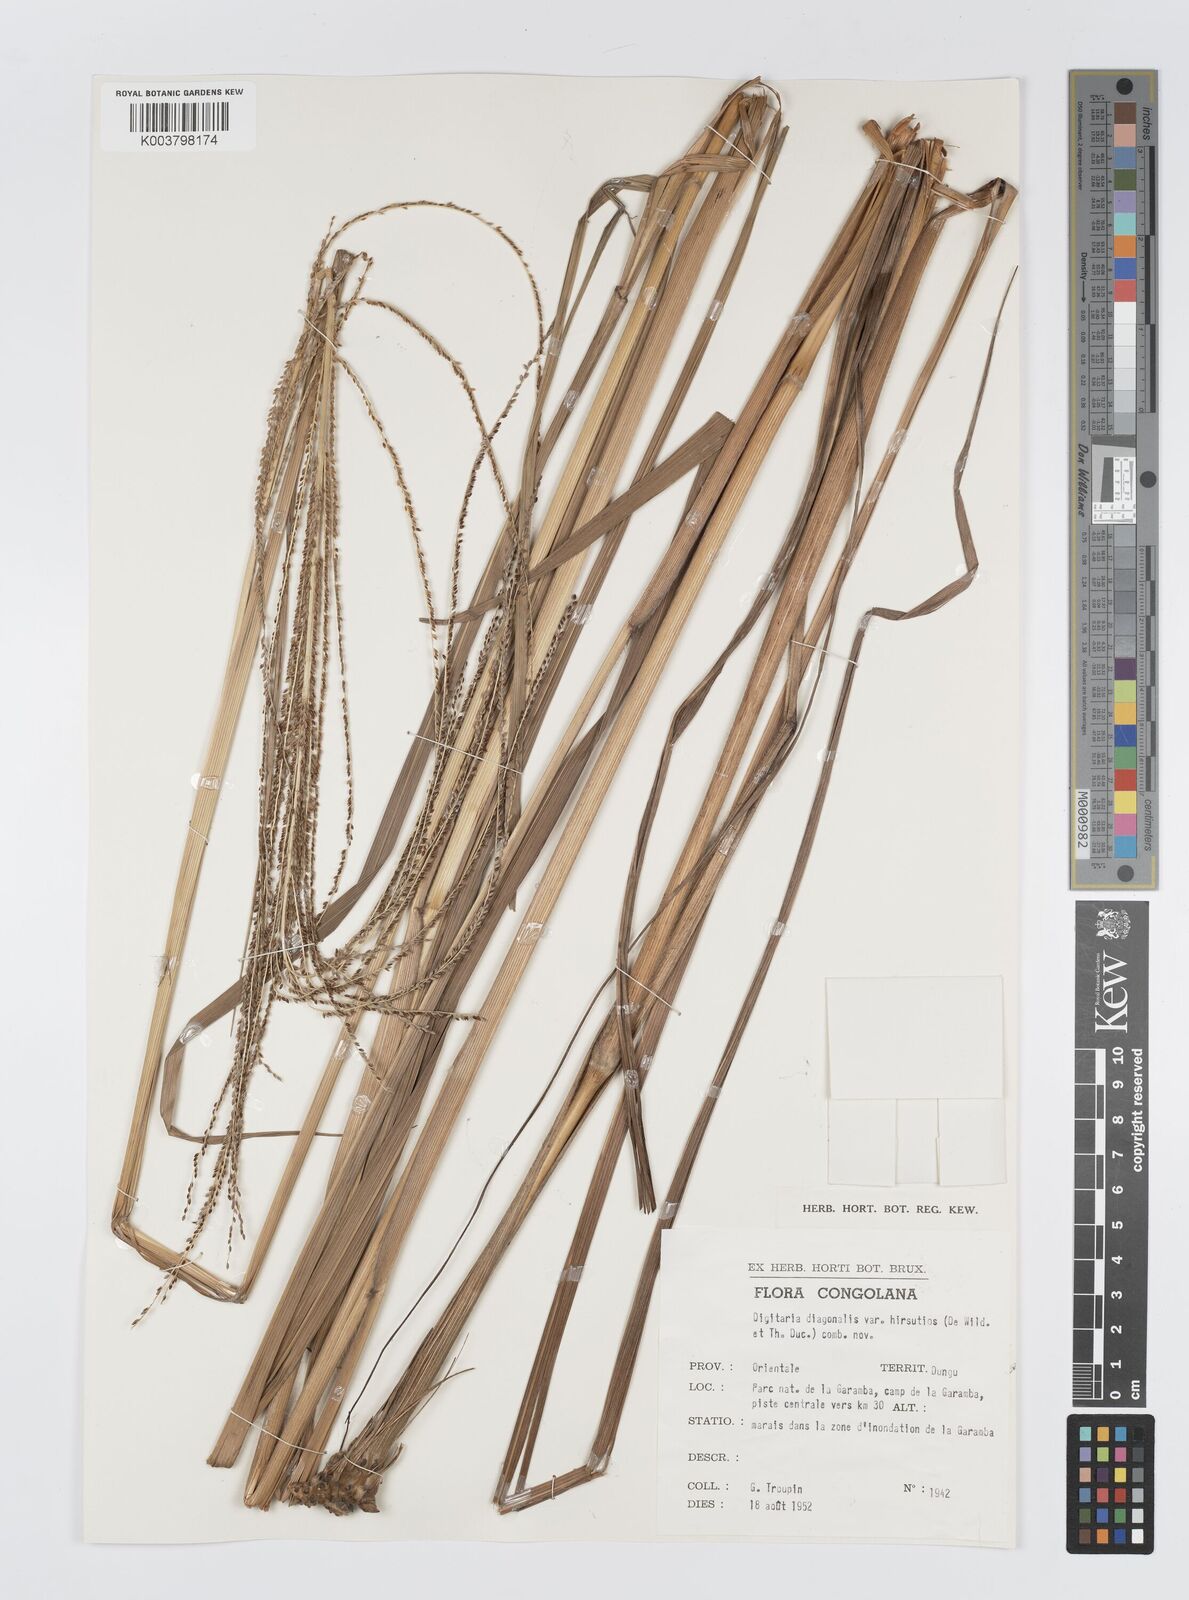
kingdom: Plantae
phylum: Tracheophyta
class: Liliopsida
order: Poales
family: Poaceae
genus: Digitaria
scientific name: Digitaria diagonalis
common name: Brown-seed finger grass
